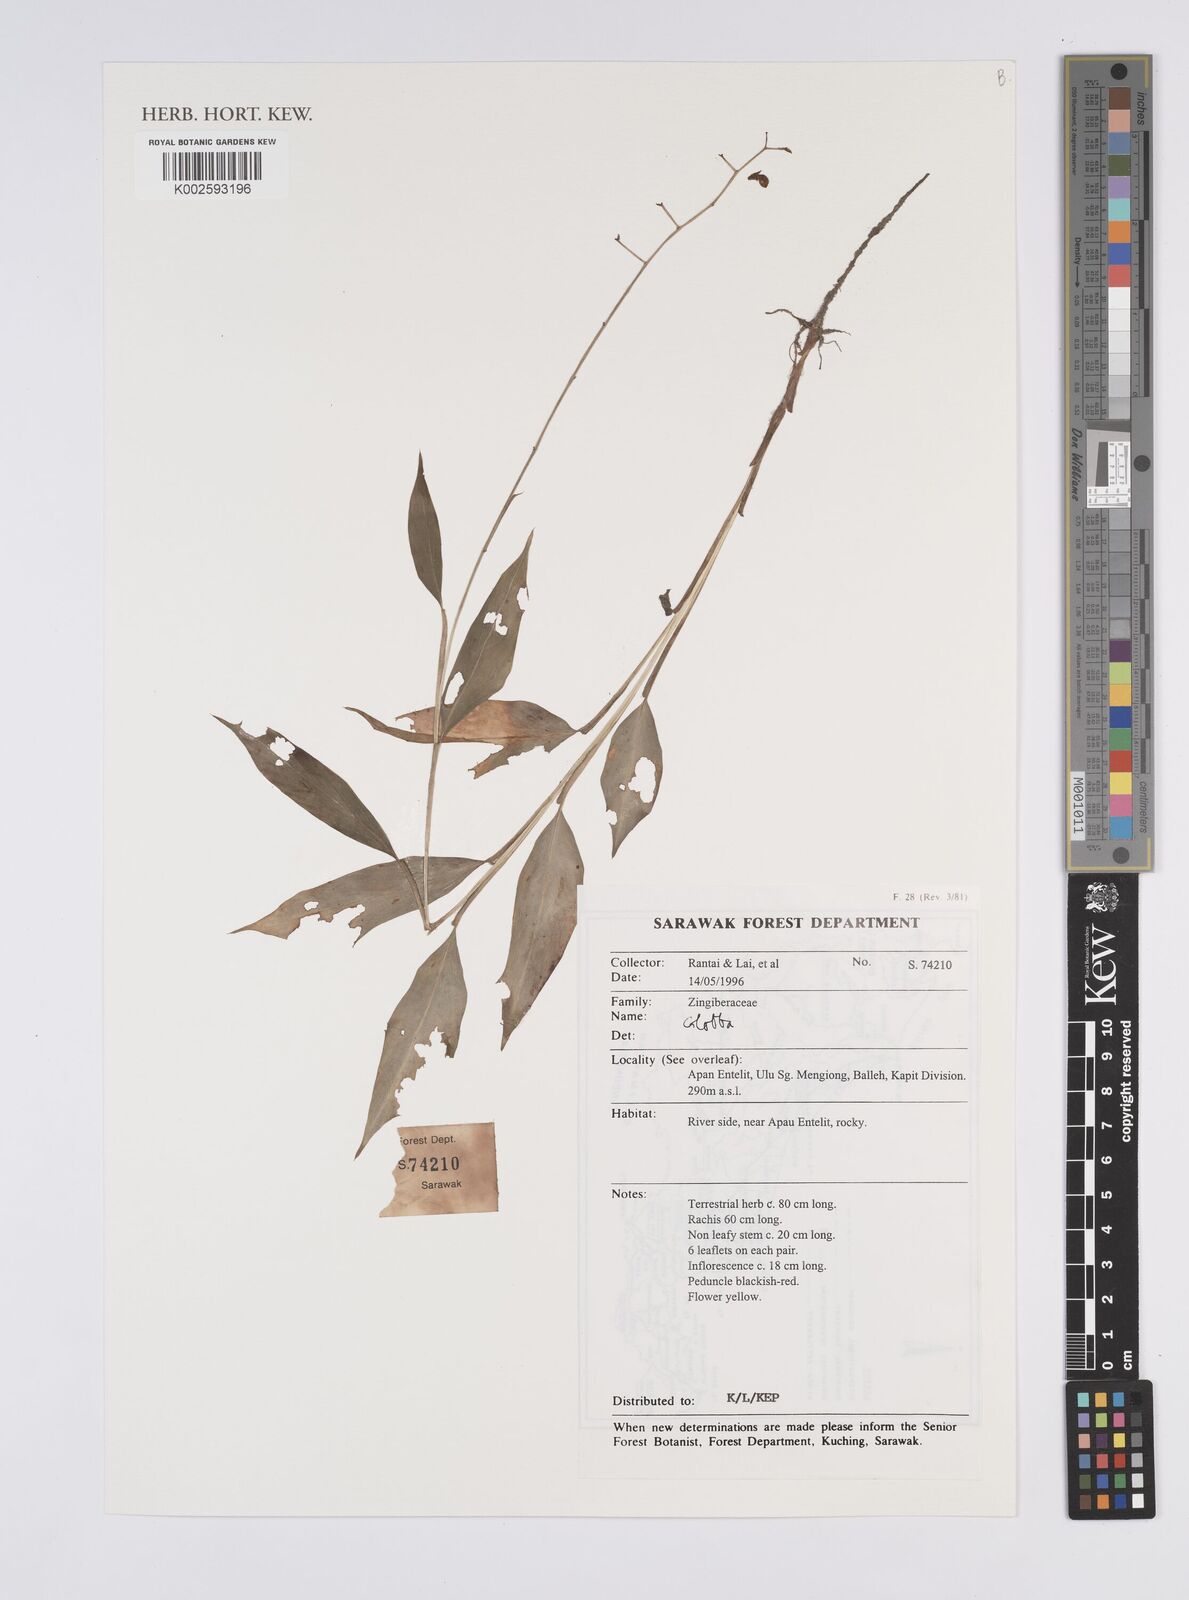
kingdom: Plantae
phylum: Tracheophyta
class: Liliopsida
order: Zingiberales
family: Zingiberaceae
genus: Globba
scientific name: Globba
